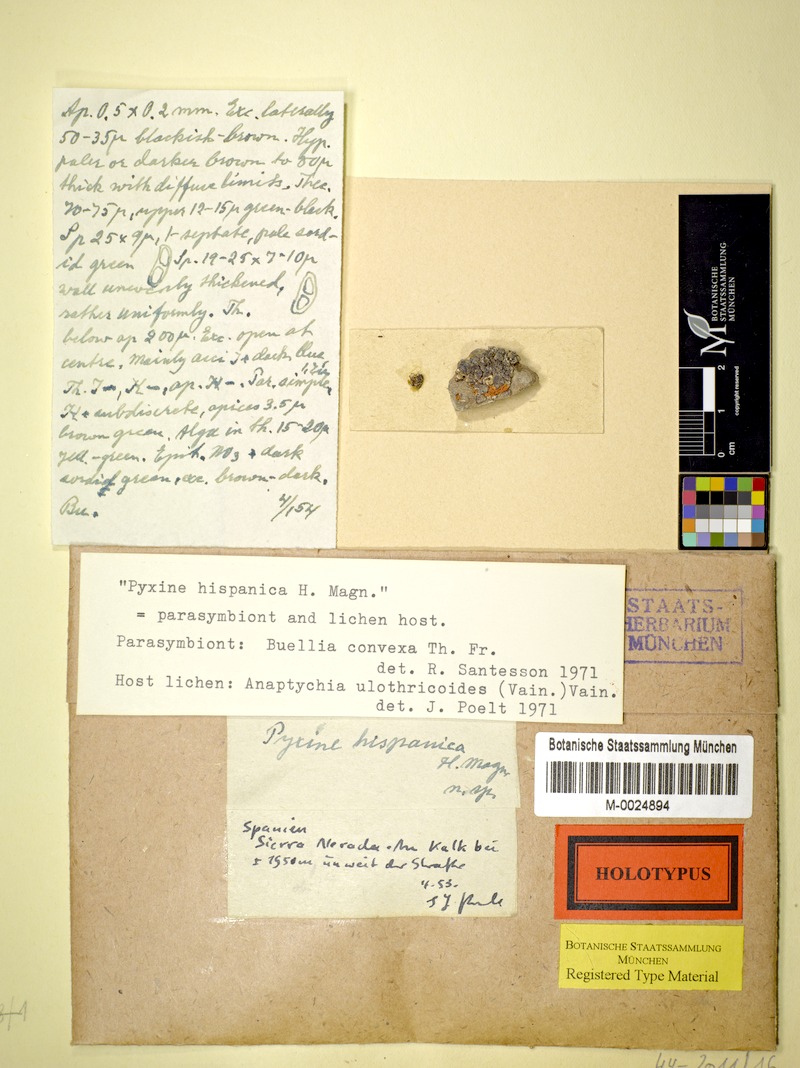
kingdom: Fungi
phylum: Ascomycota
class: Lecanoromycetes
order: Caliciales
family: Caliciaceae
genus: Tetramelas
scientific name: Tetramelas pulverulentus
